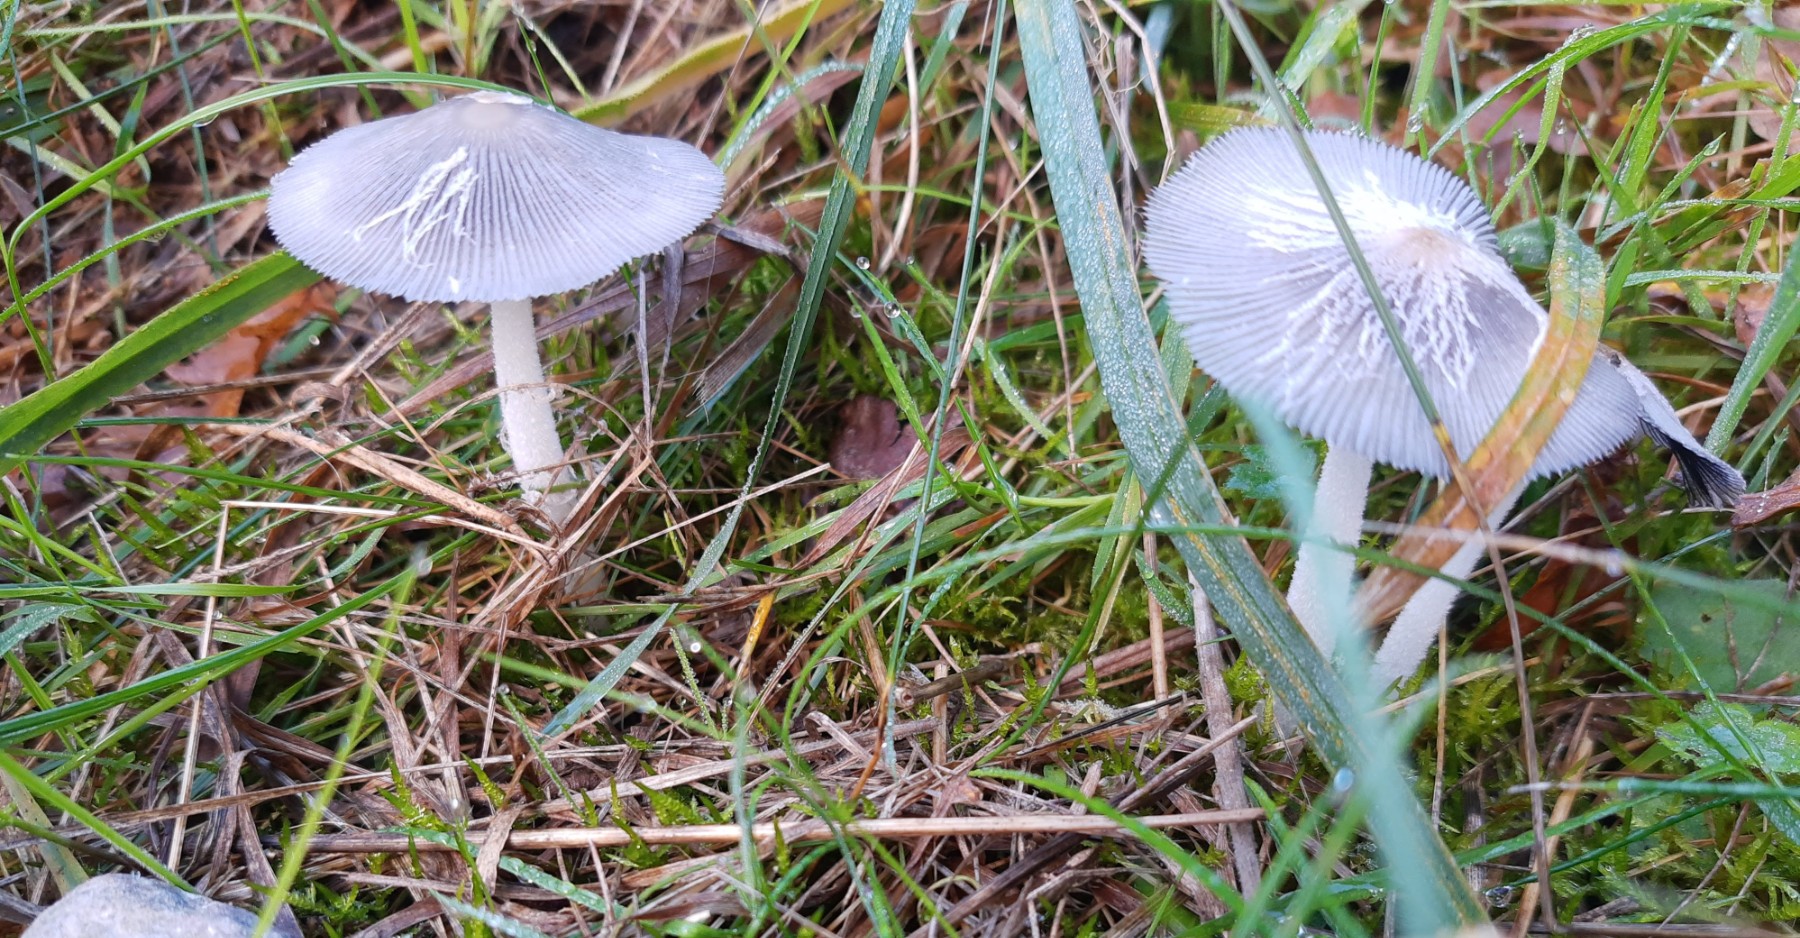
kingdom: Fungi
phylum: Basidiomycota
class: Agaricomycetes
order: Agaricales
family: Psathyrellaceae
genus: Coprinopsis
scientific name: Coprinopsis lagopus
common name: dunstokket blækhat
